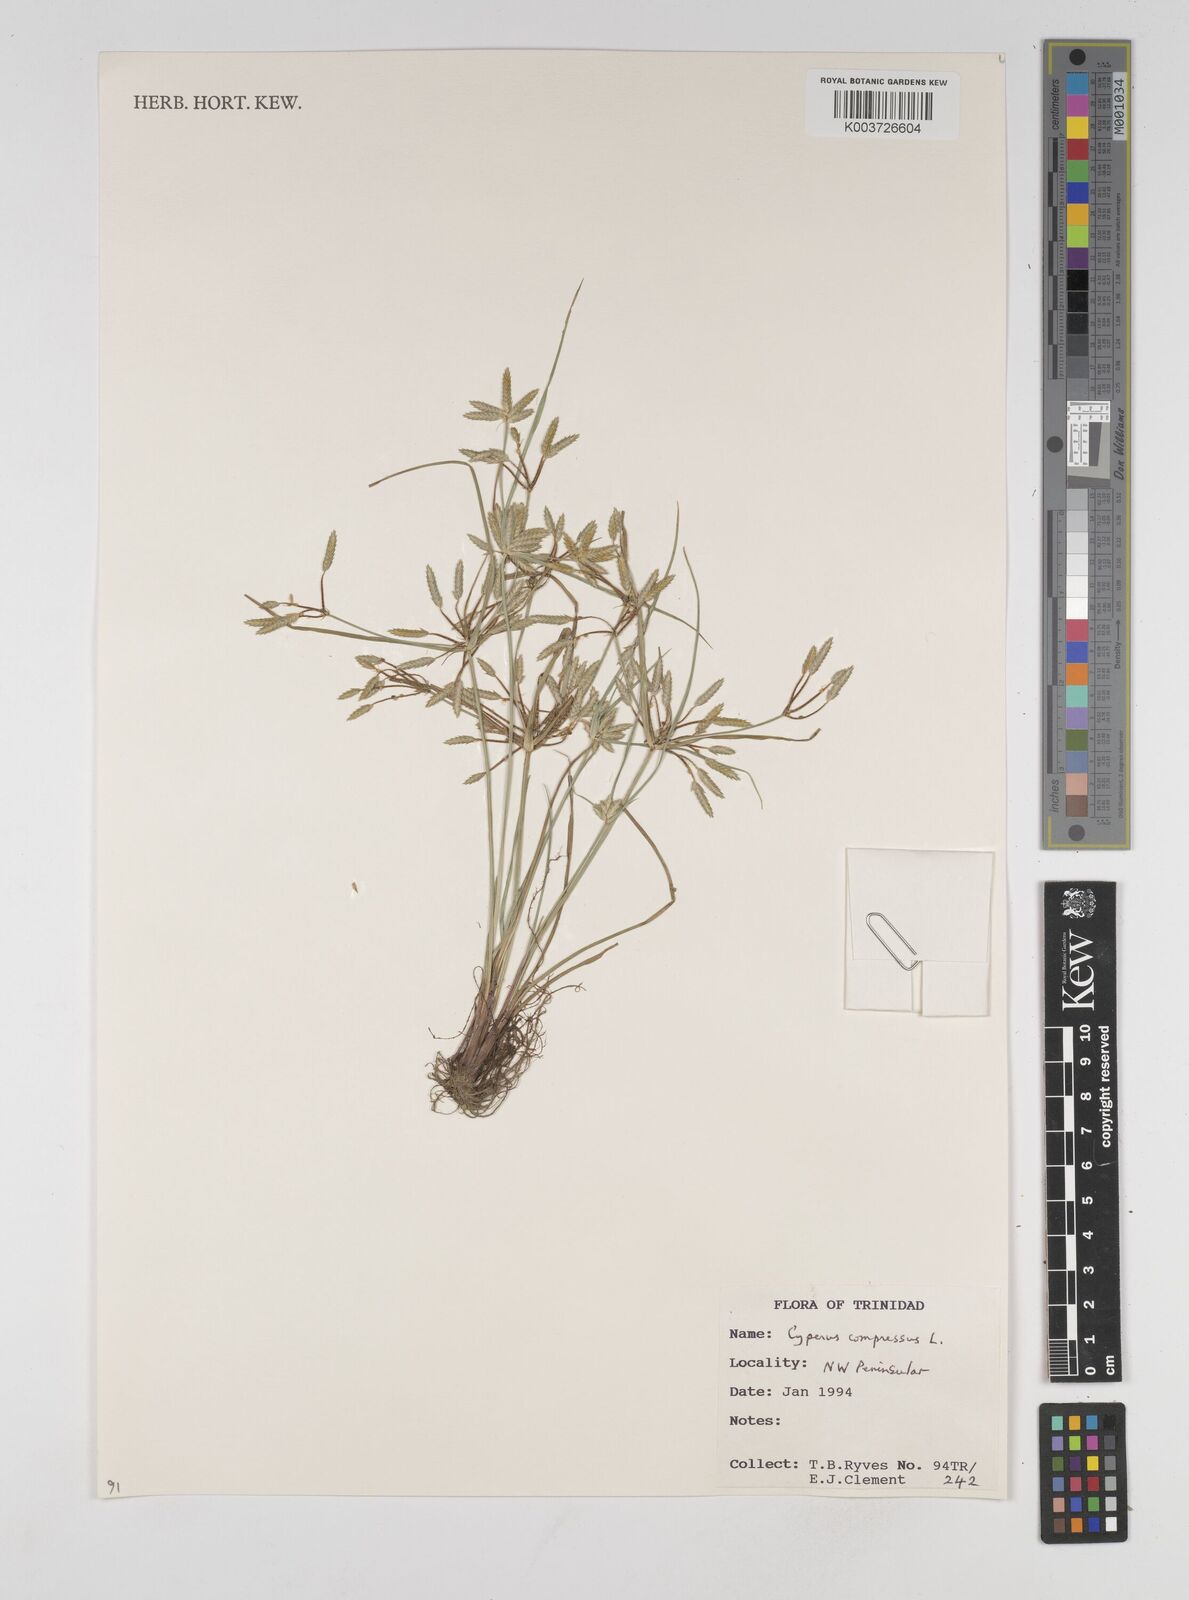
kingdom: Plantae
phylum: Tracheophyta
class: Liliopsida
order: Poales
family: Cyperaceae
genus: Cyperus
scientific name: Cyperus compressus
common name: Poorland flatsedge
